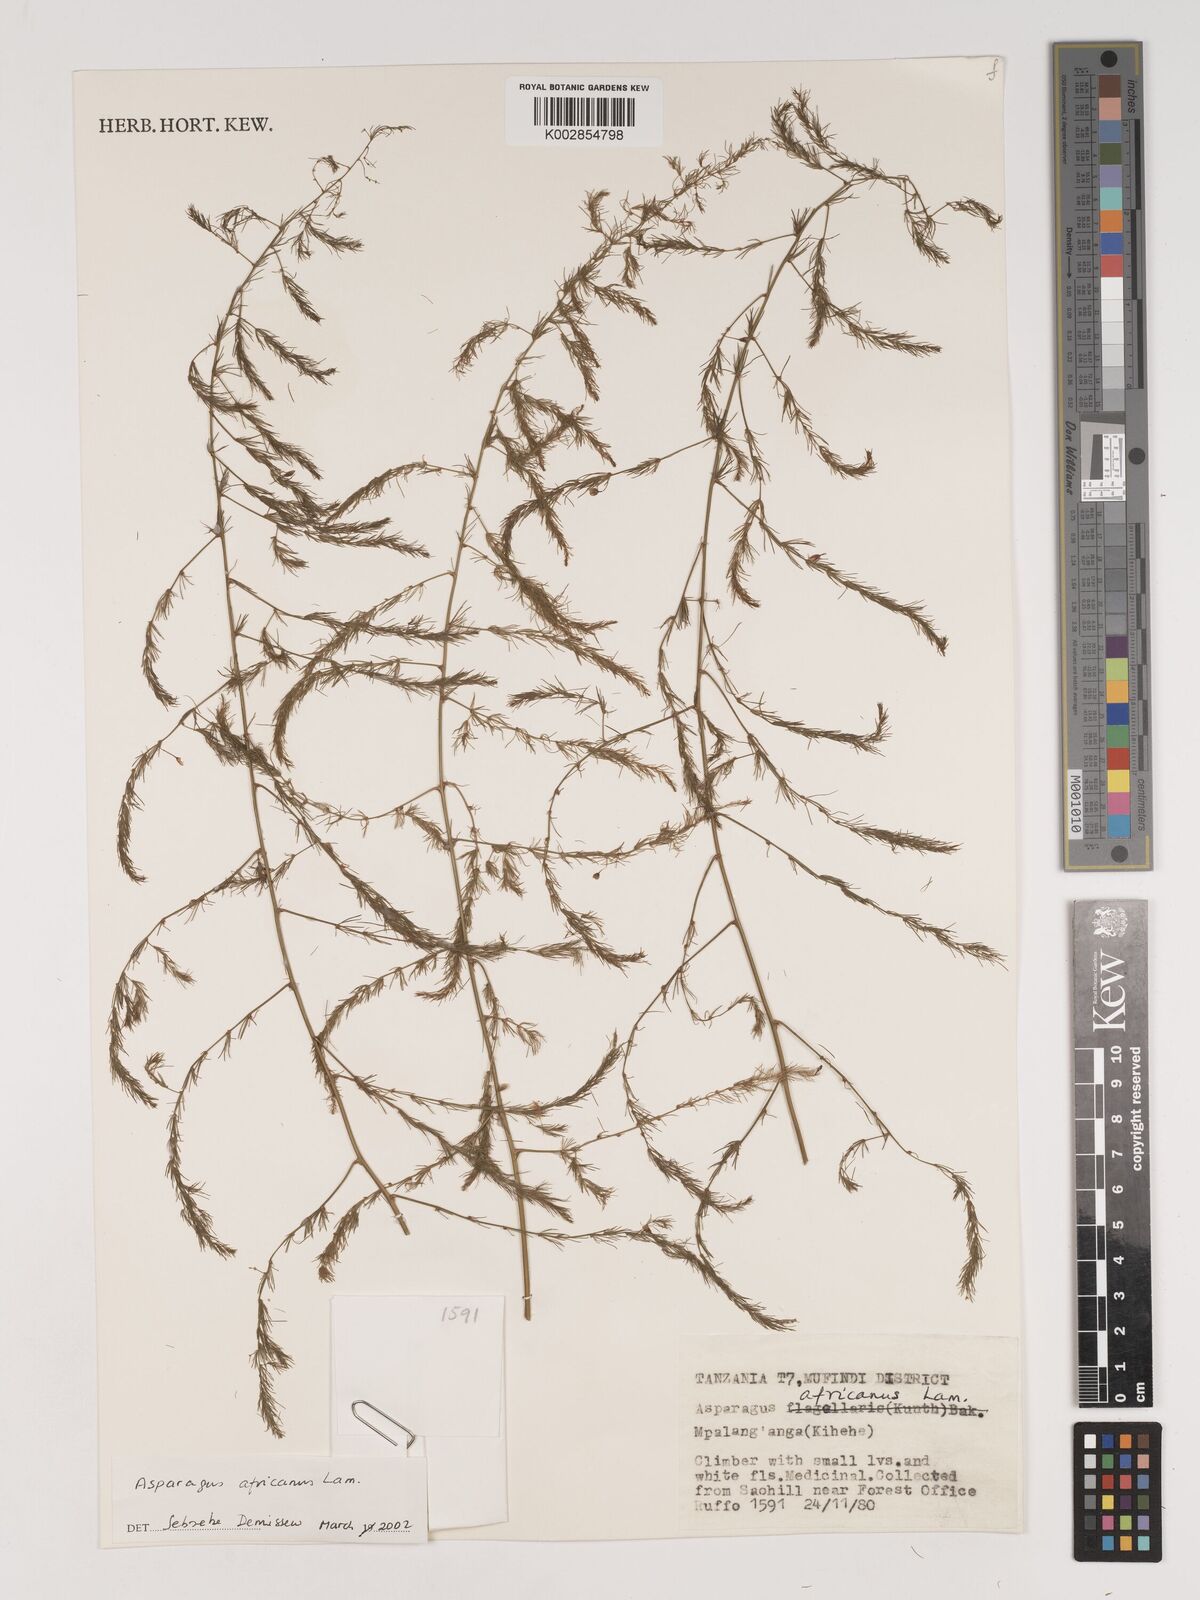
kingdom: Plantae
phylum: Tracheophyta
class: Liliopsida
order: Asparagales
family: Asparagaceae
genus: Asparagus
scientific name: Asparagus africanus
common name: Asparagus-fern
